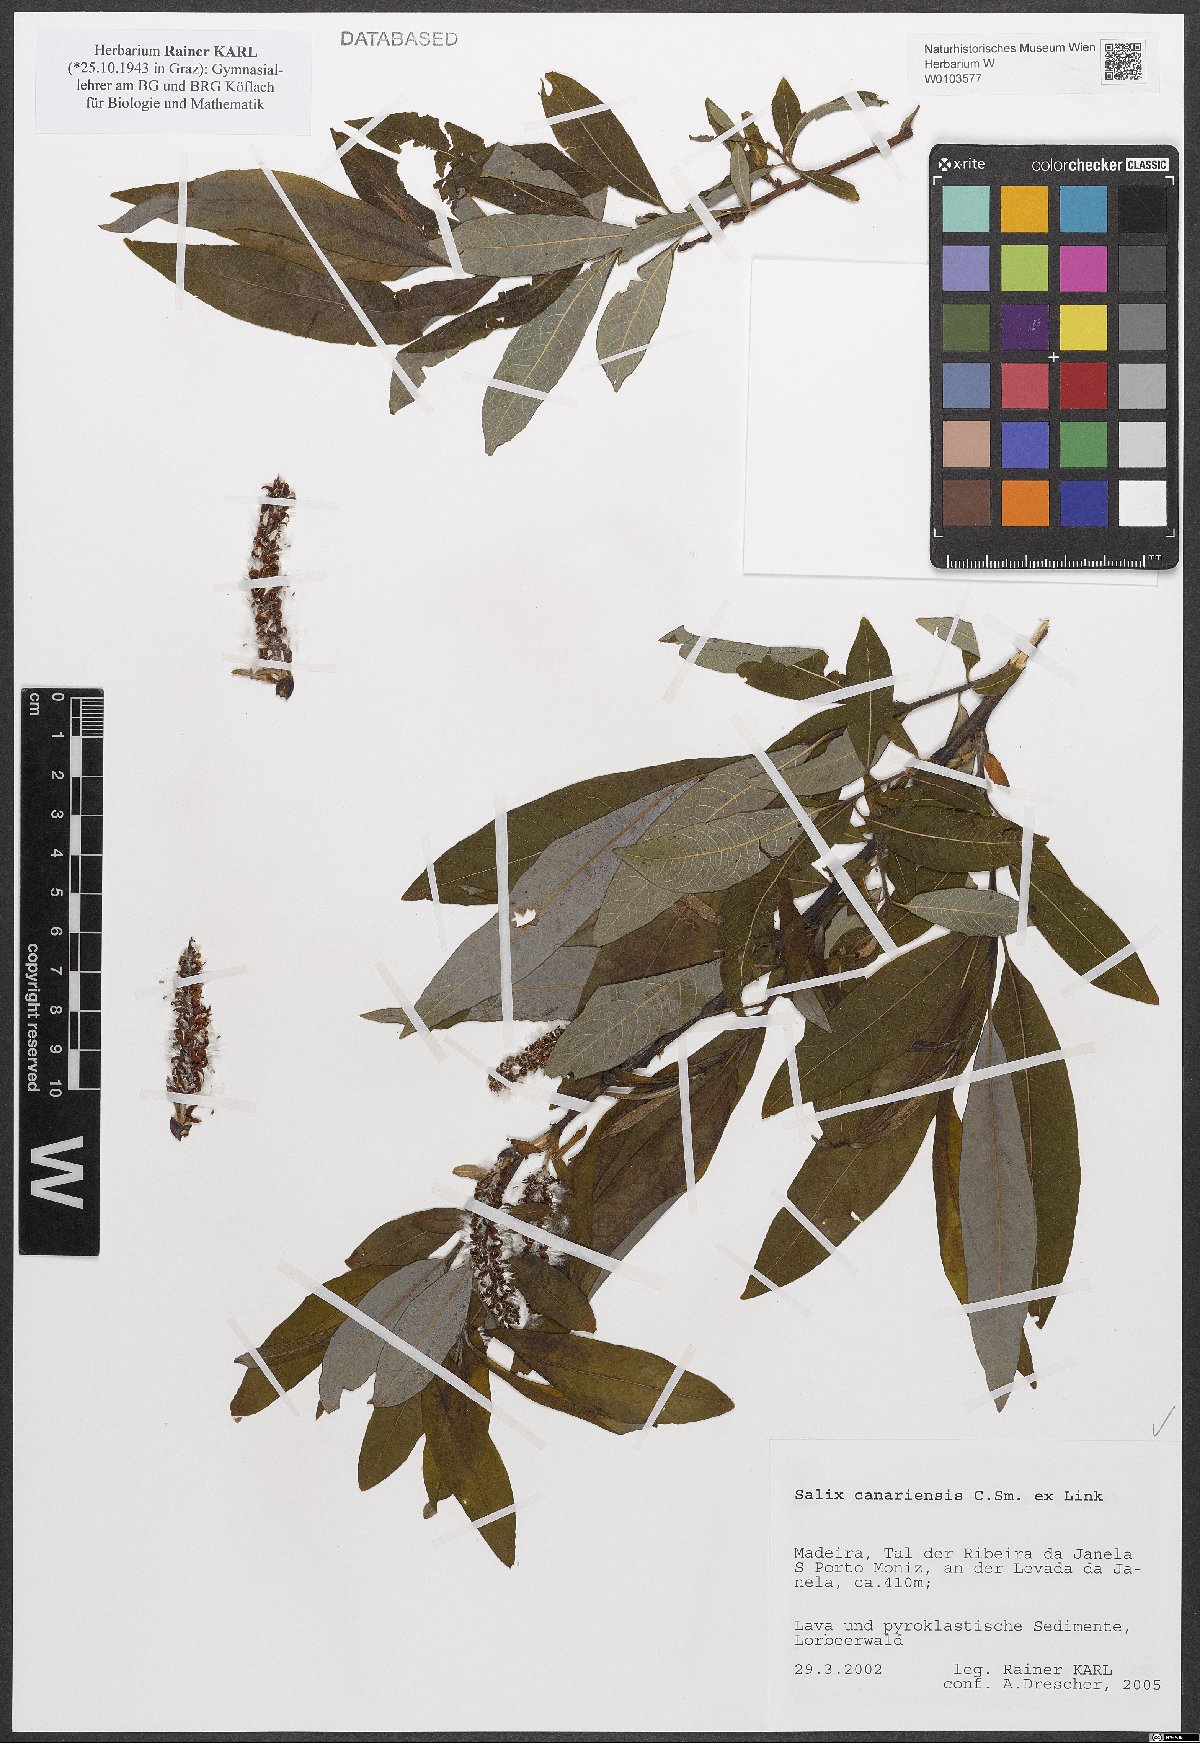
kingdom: Plantae
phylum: Tracheophyta
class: Magnoliopsida
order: Malpighiales
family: Salicaceae
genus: Salix
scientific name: Salix canariensis
